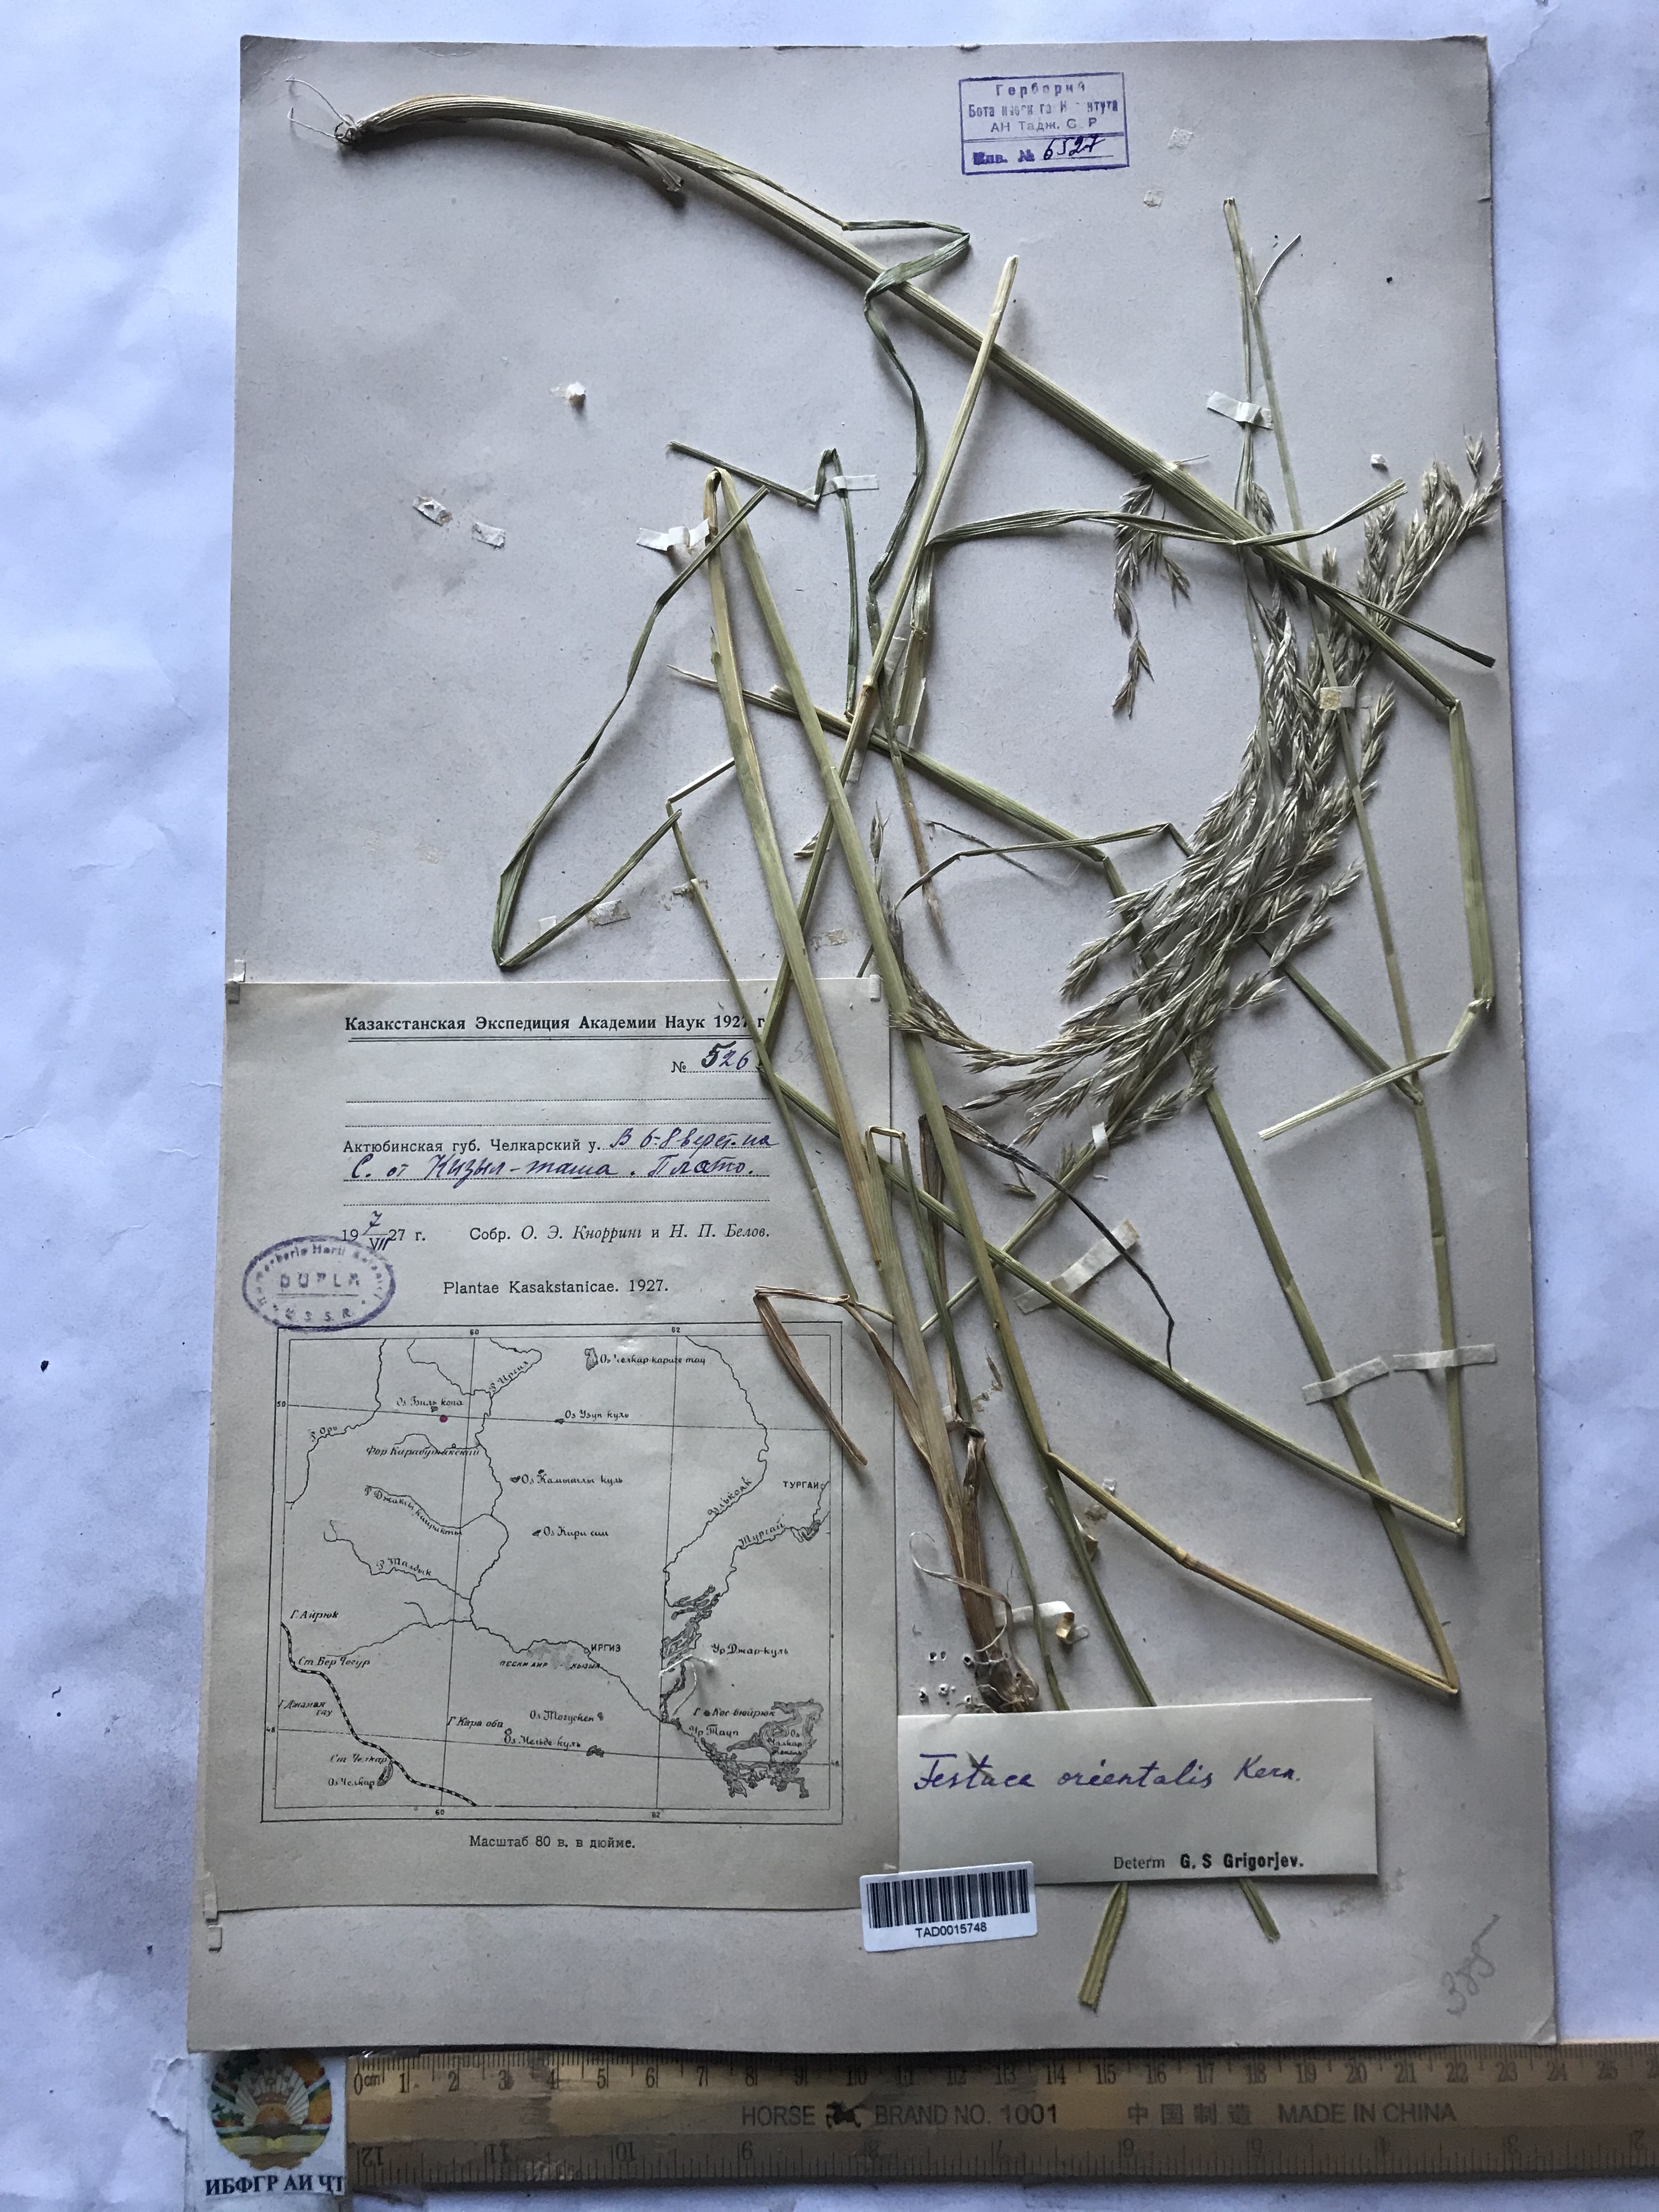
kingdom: Plantae
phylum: Tracheophyta
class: Liliopsida
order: Poales
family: Poaceae
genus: Lolium
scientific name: Lolium arundinaceum
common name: Reed fescue
